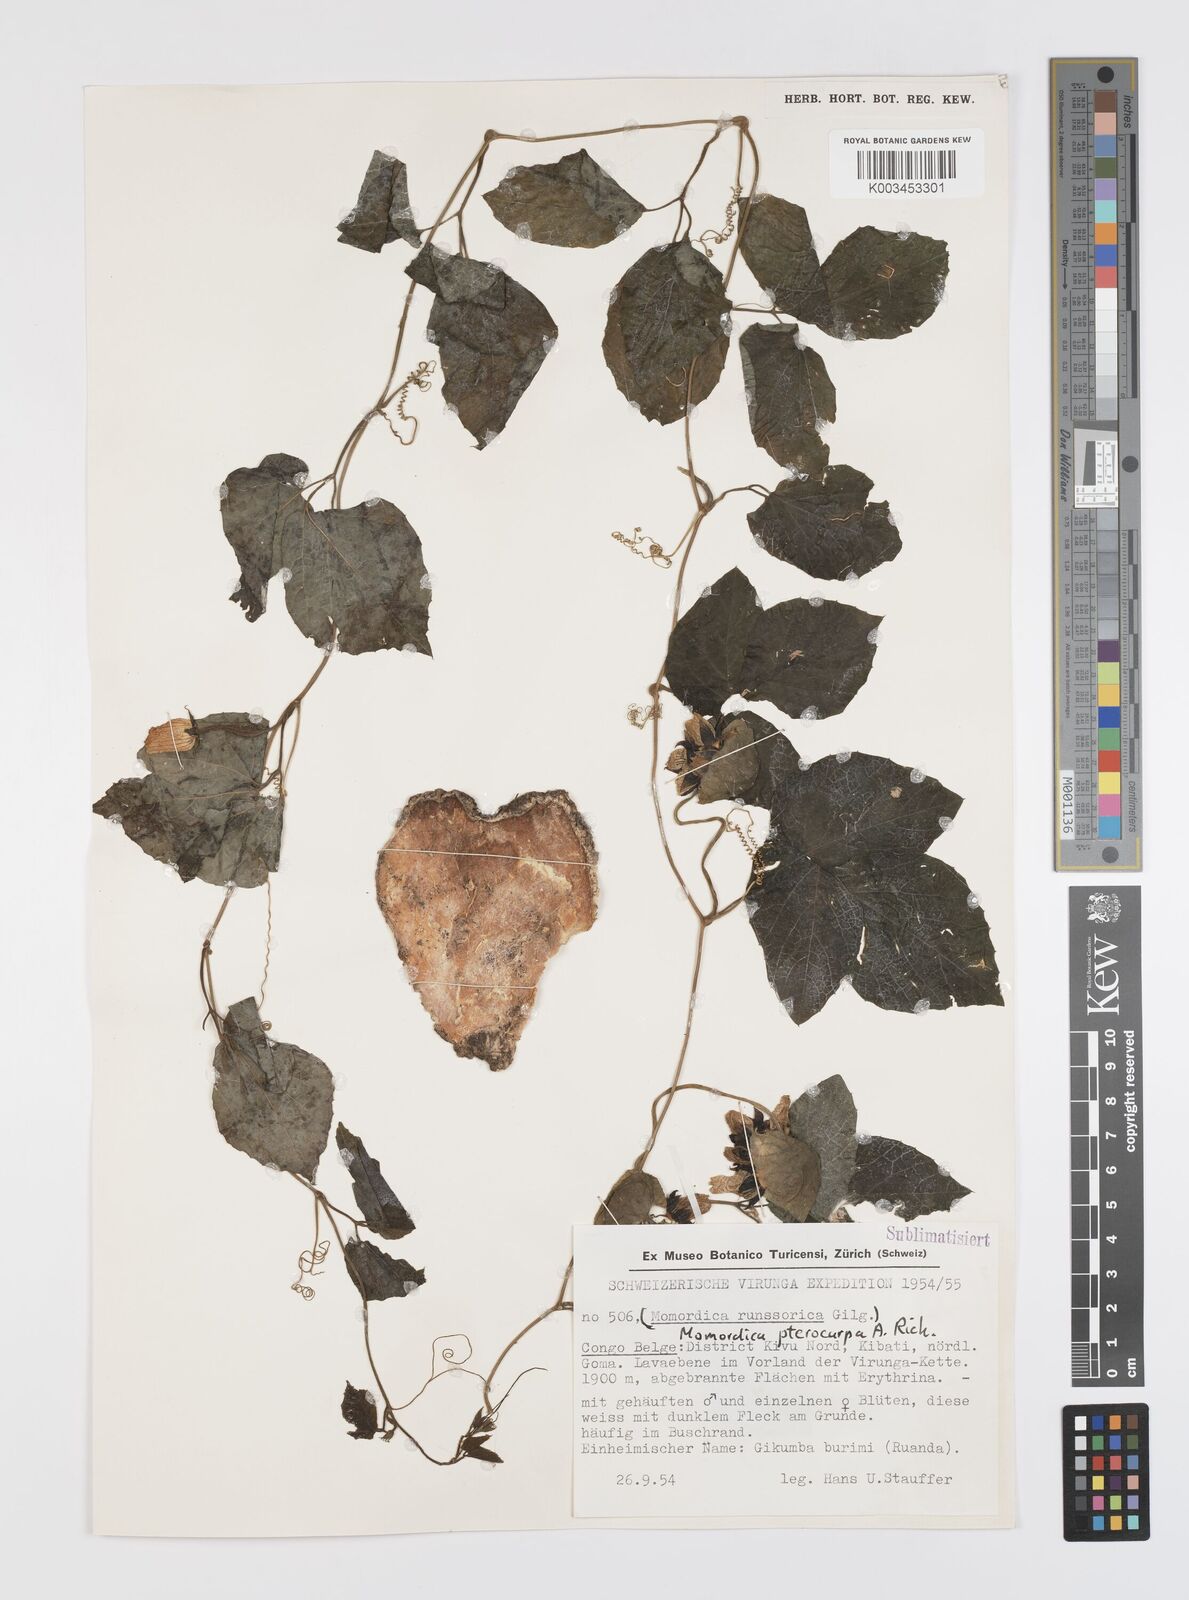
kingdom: Plantae
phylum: Tracheophyta
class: Magnoliopsida
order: Cucurbitales
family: Cucurbitaceae
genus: Momordica
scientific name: Momordica pterocarpa
